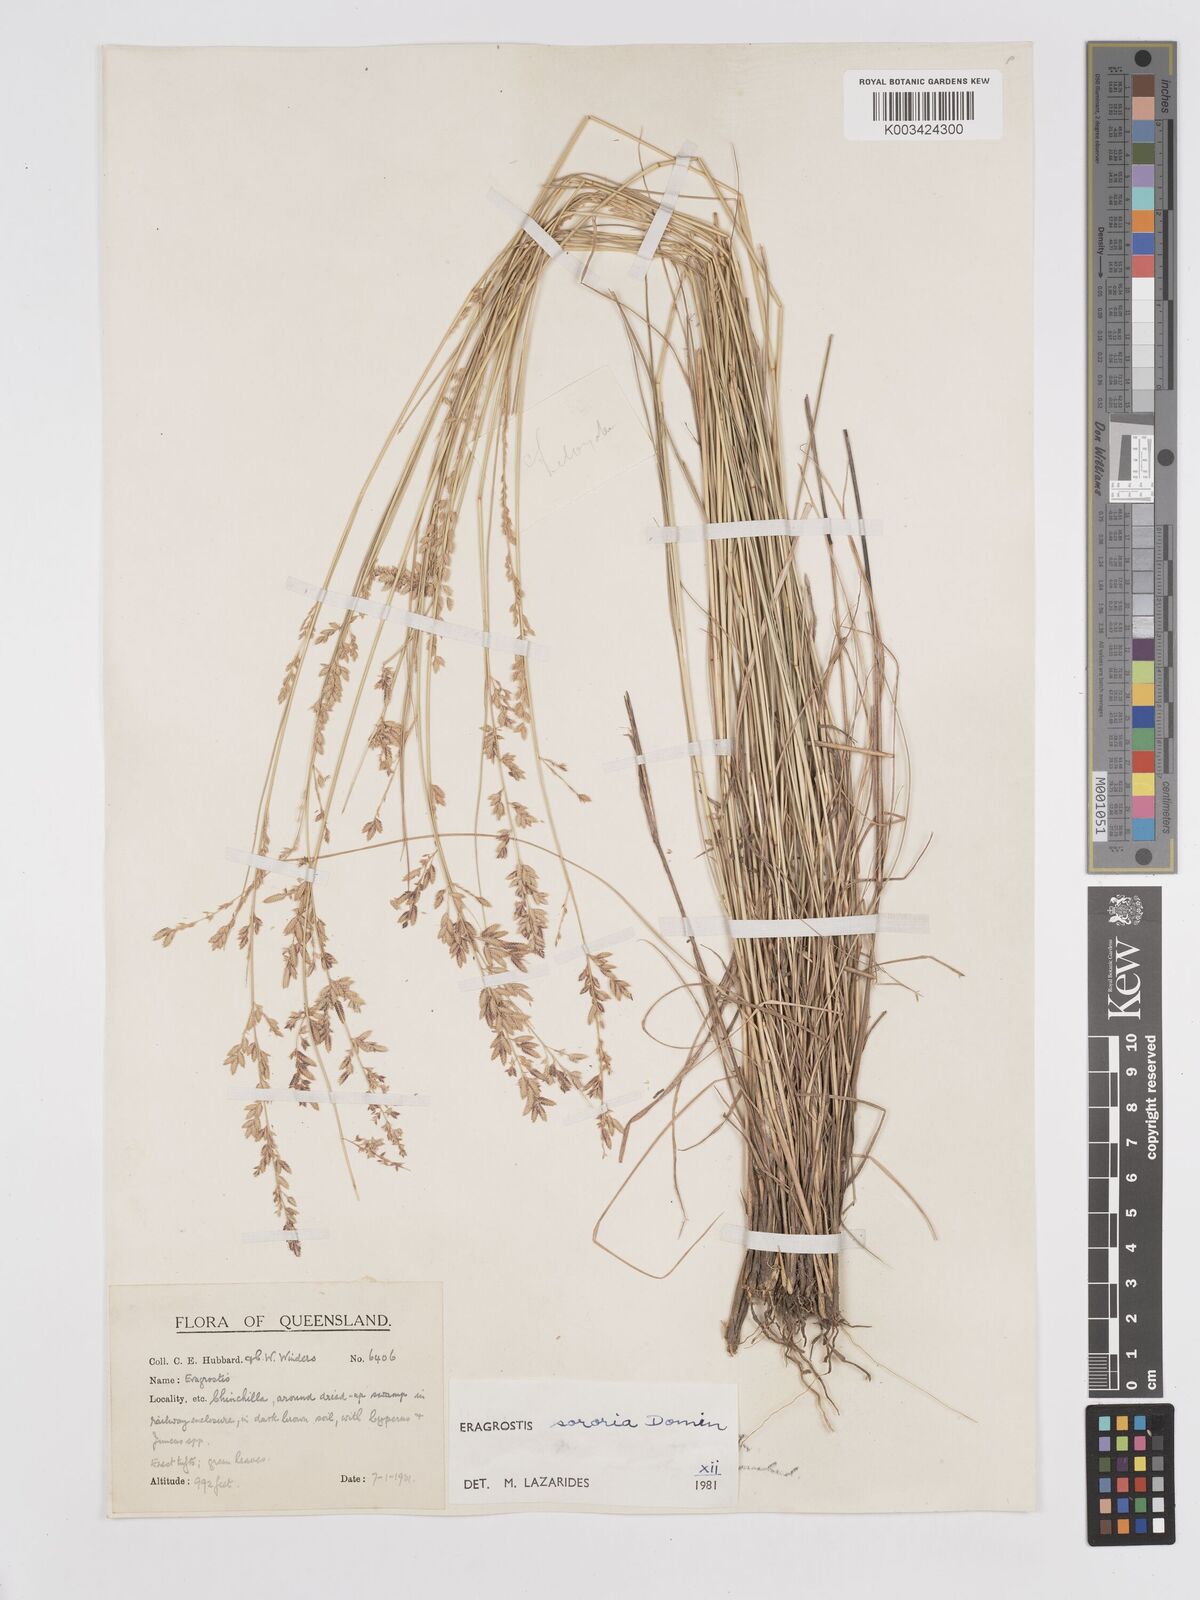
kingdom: Plantae
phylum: Tracheophyta
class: Liliopsida
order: Poales
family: Poaceae
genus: Eragrostis
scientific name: Eragrostis sororia
